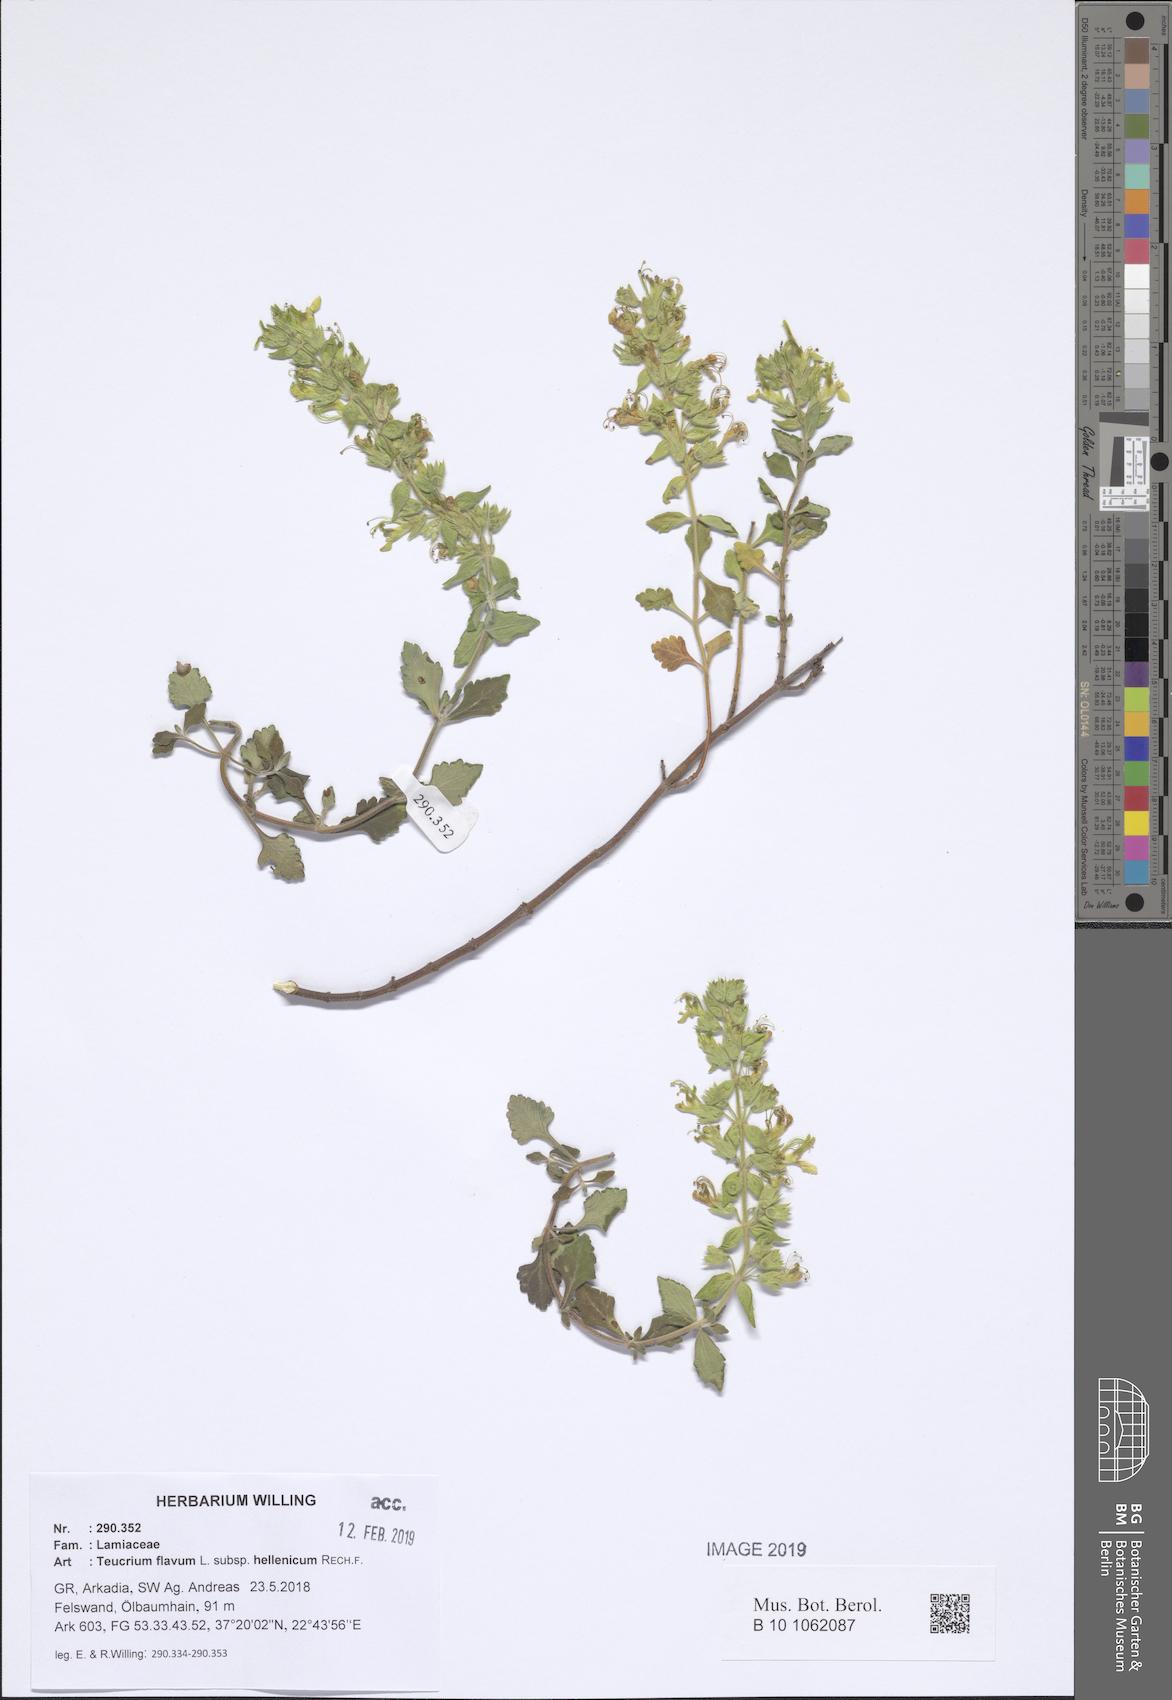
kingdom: Plantae
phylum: Tracheophyta
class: Magnoliopsida
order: Lamiales
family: Lamiaceae
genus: Teucrium
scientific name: Teucrium flavum
